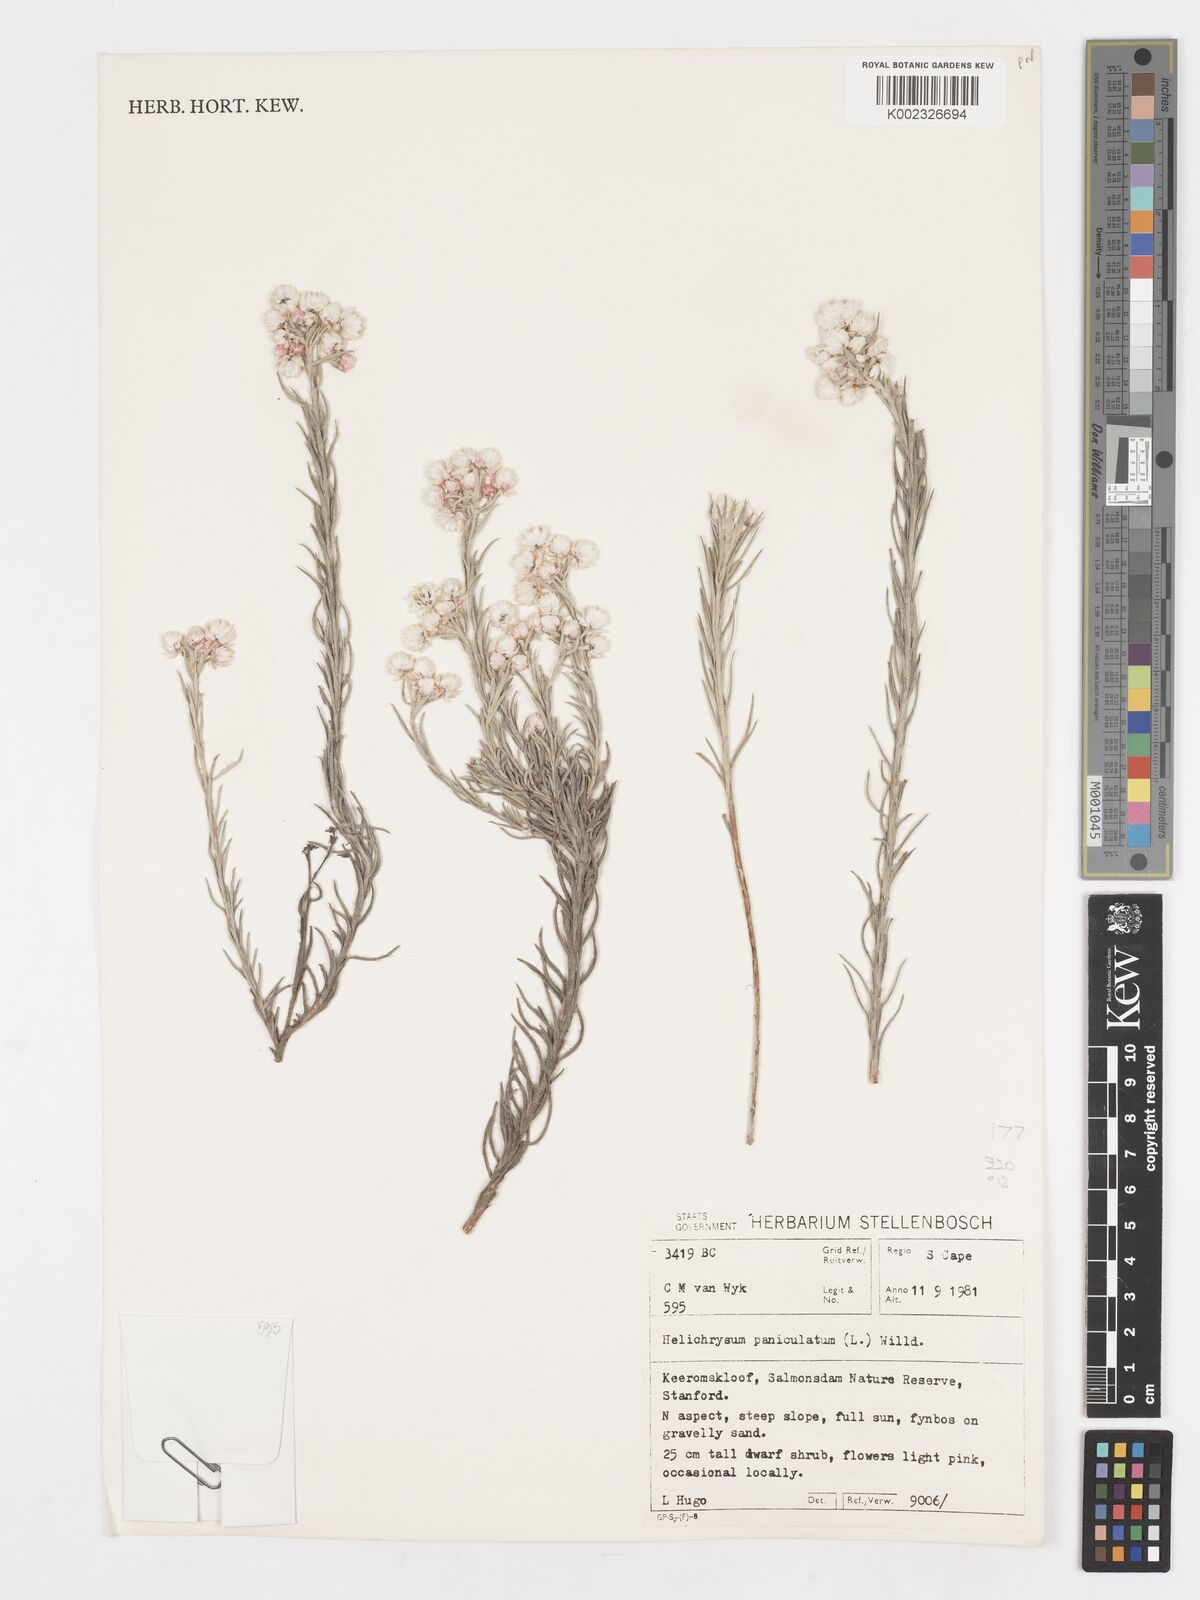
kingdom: Plantae
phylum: Tracheophyta
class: Magnoliopsida
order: Asterales
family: Asteraceae
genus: Achyranthemum
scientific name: Achyranthemum paniculatum
